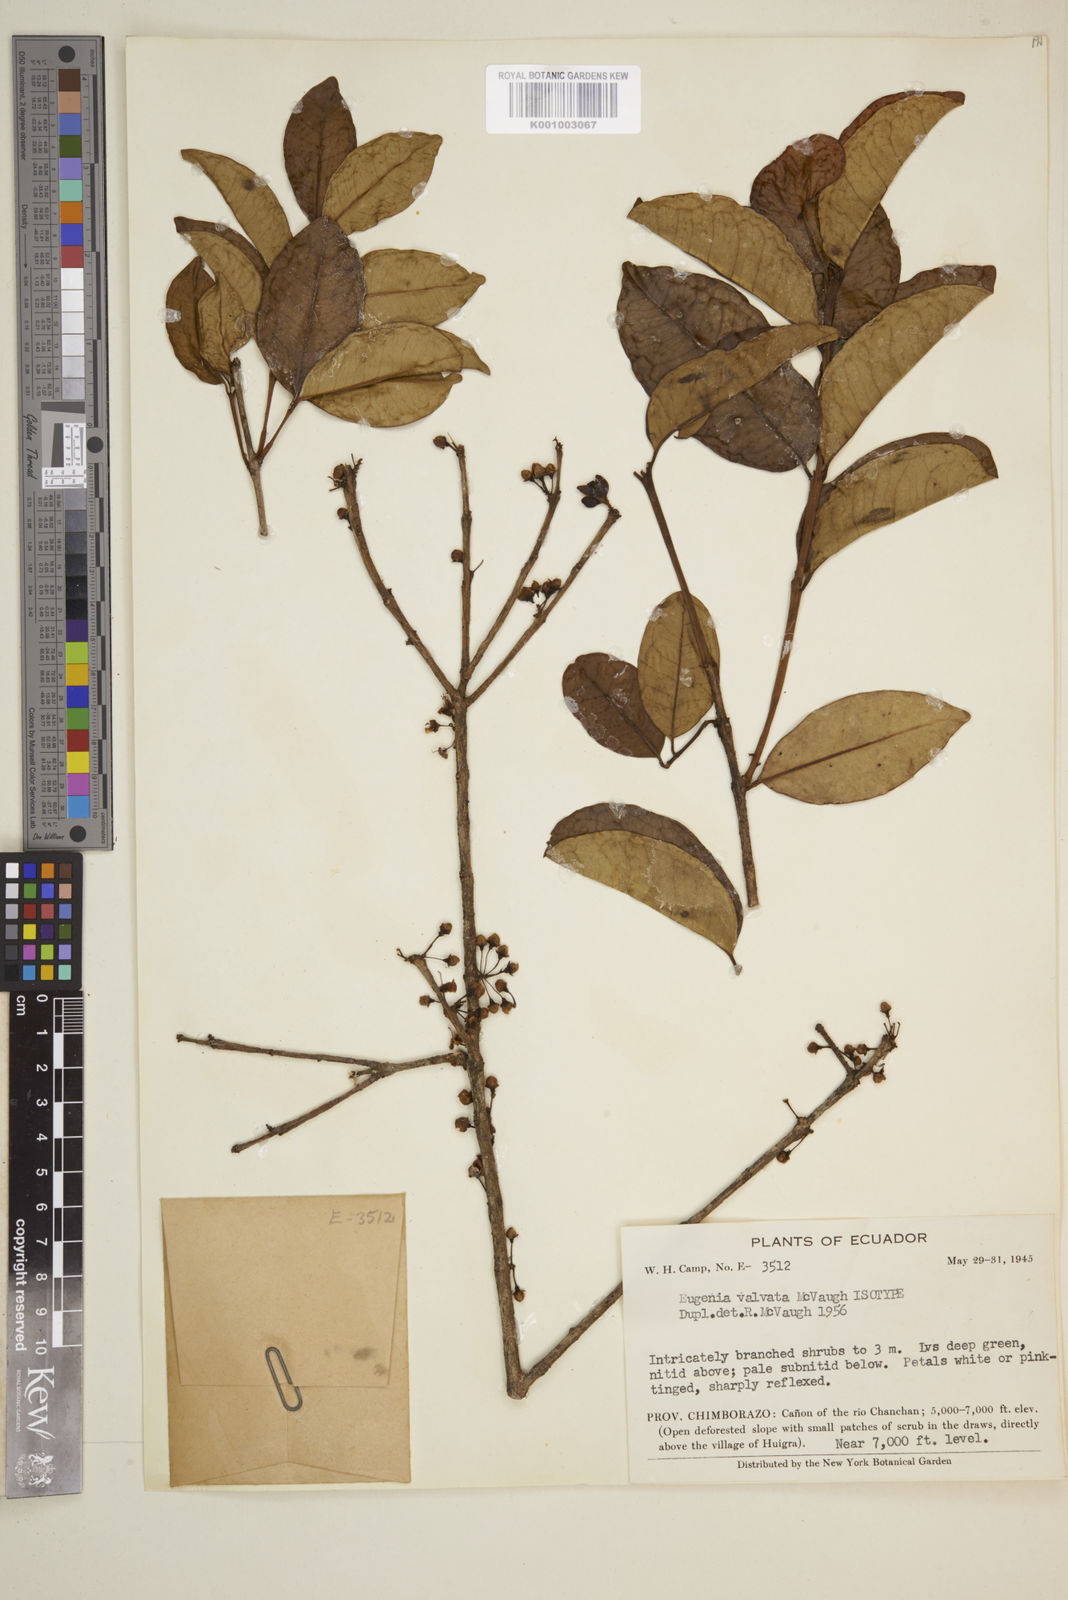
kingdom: Plantae
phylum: Tracheophyta
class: Magnoliopsida
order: Myrtales
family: Myrtaceae
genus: Eugenia
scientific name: Eugenia valvata
